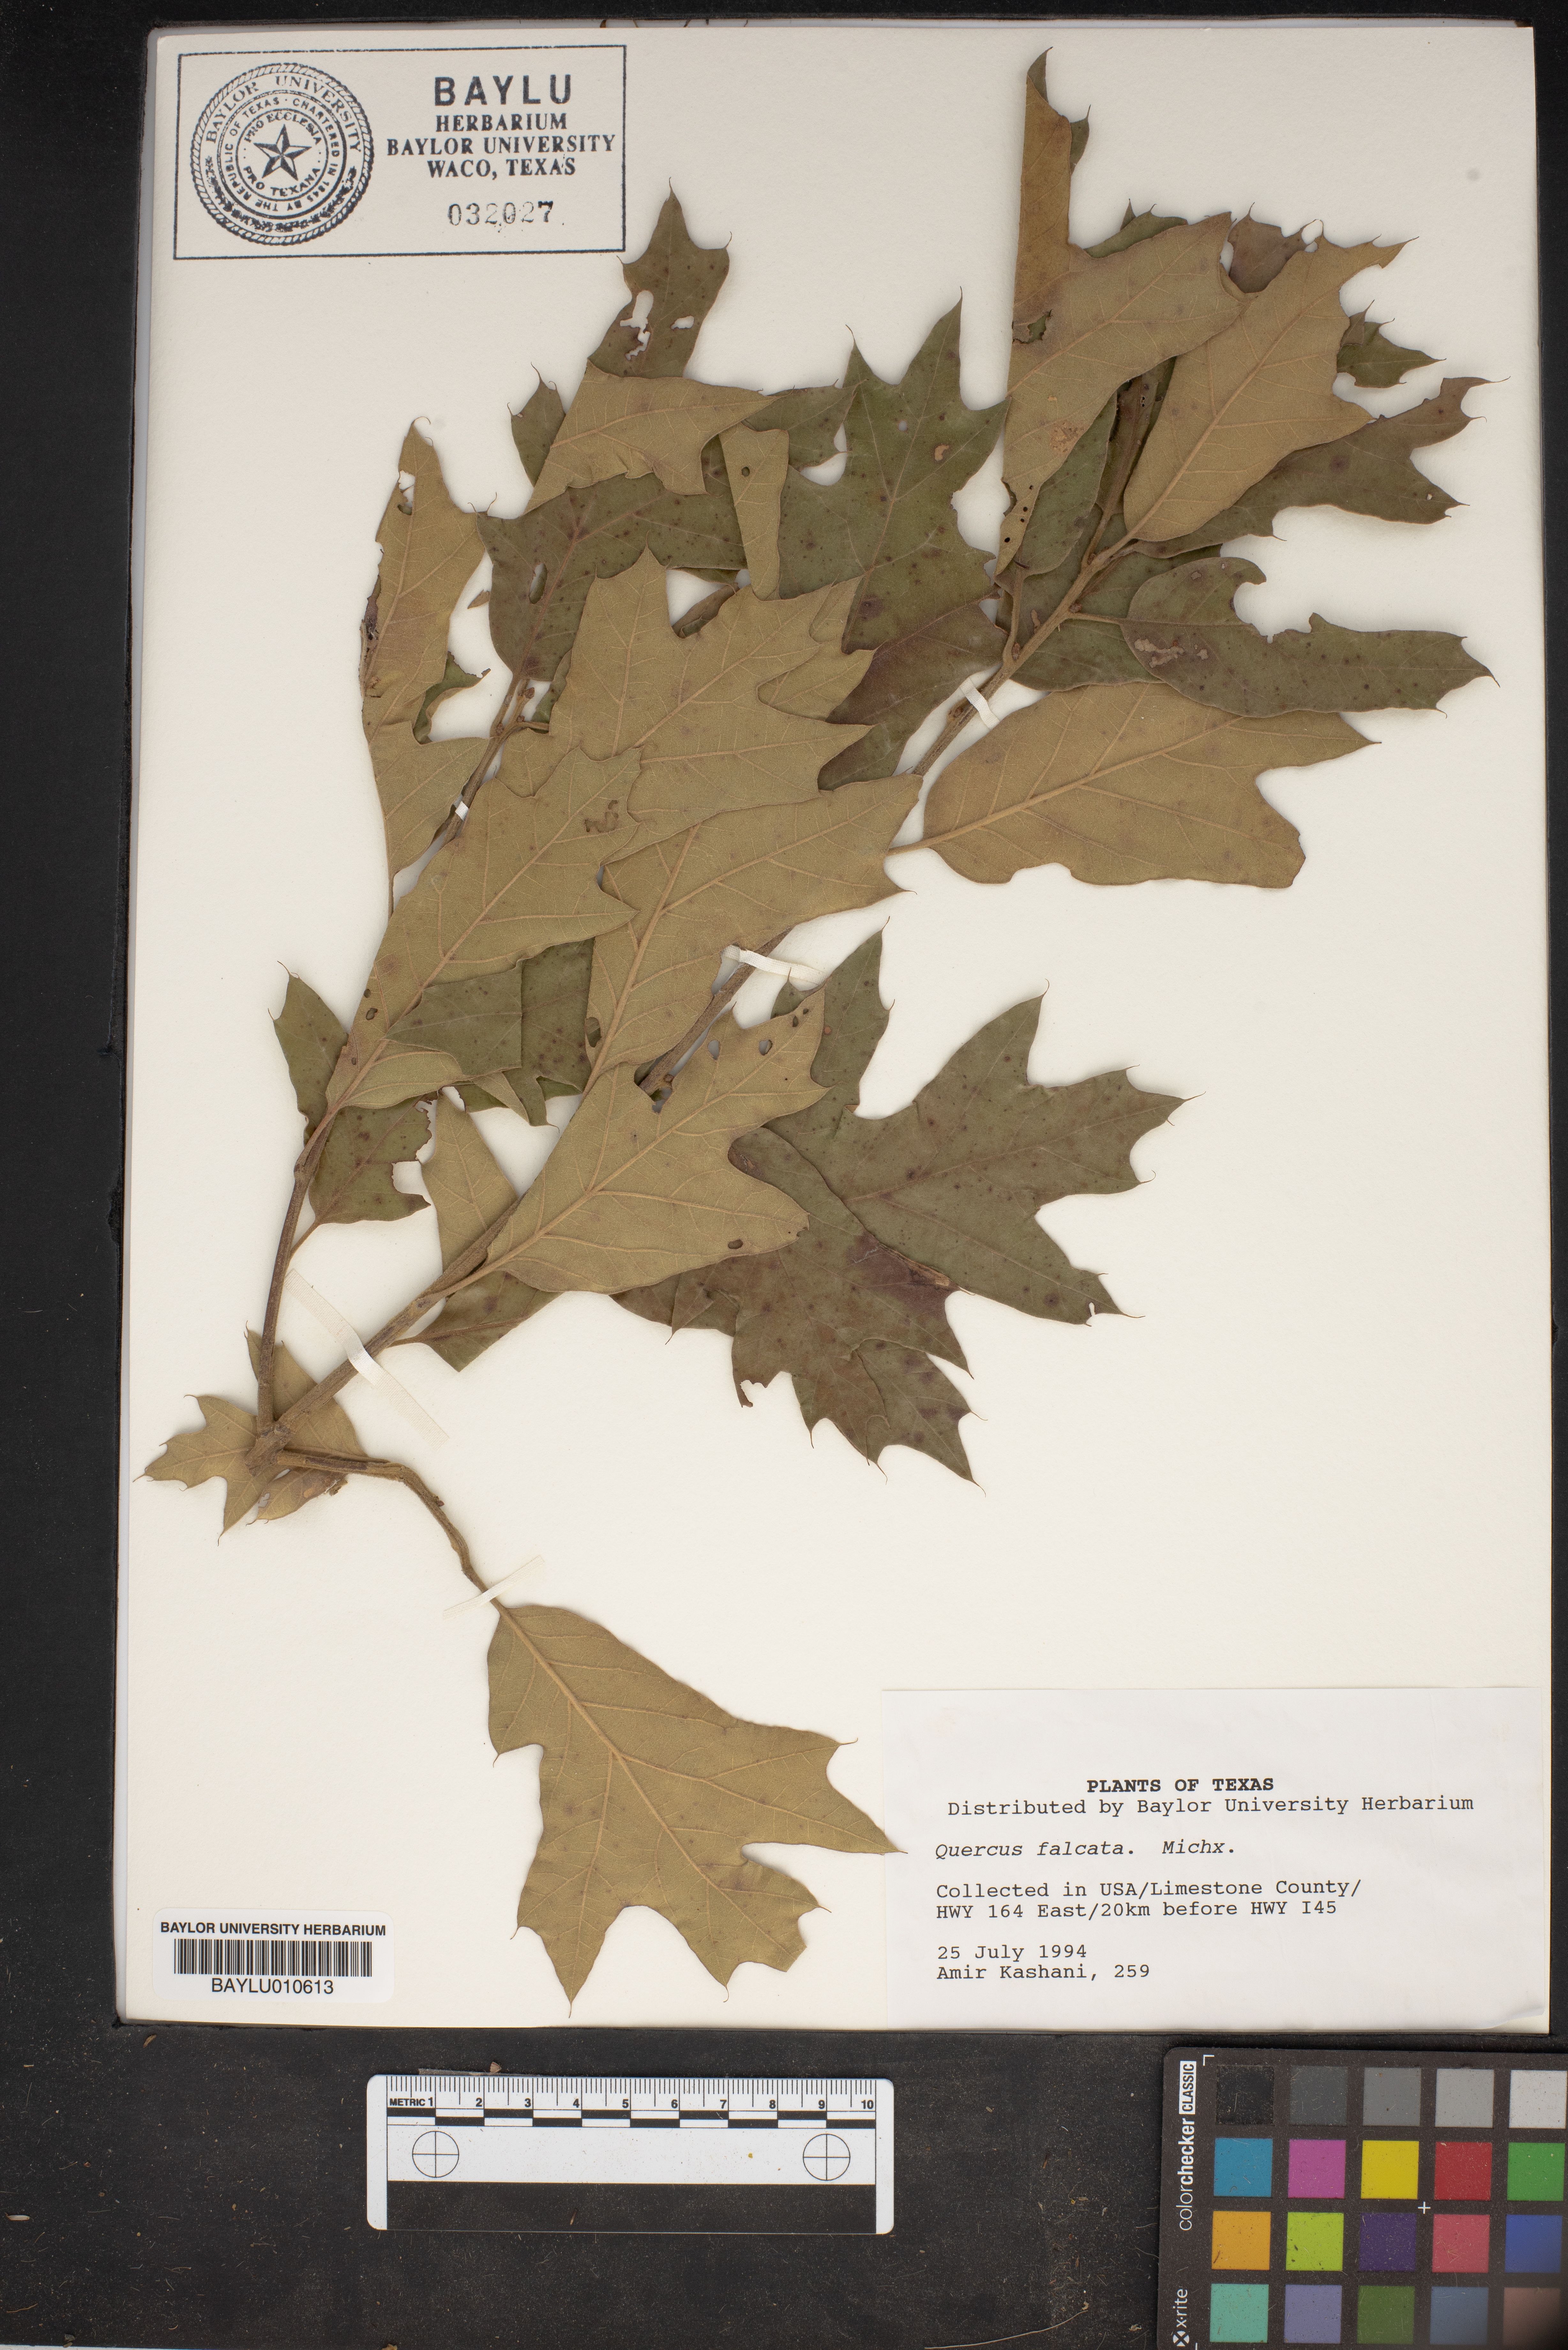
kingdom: Plantae
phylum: Tracheophyta
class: Magnoliopsida
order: Fagales
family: Fagaceae
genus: Quercus
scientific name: Quercus falcata
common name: Southern red oak
